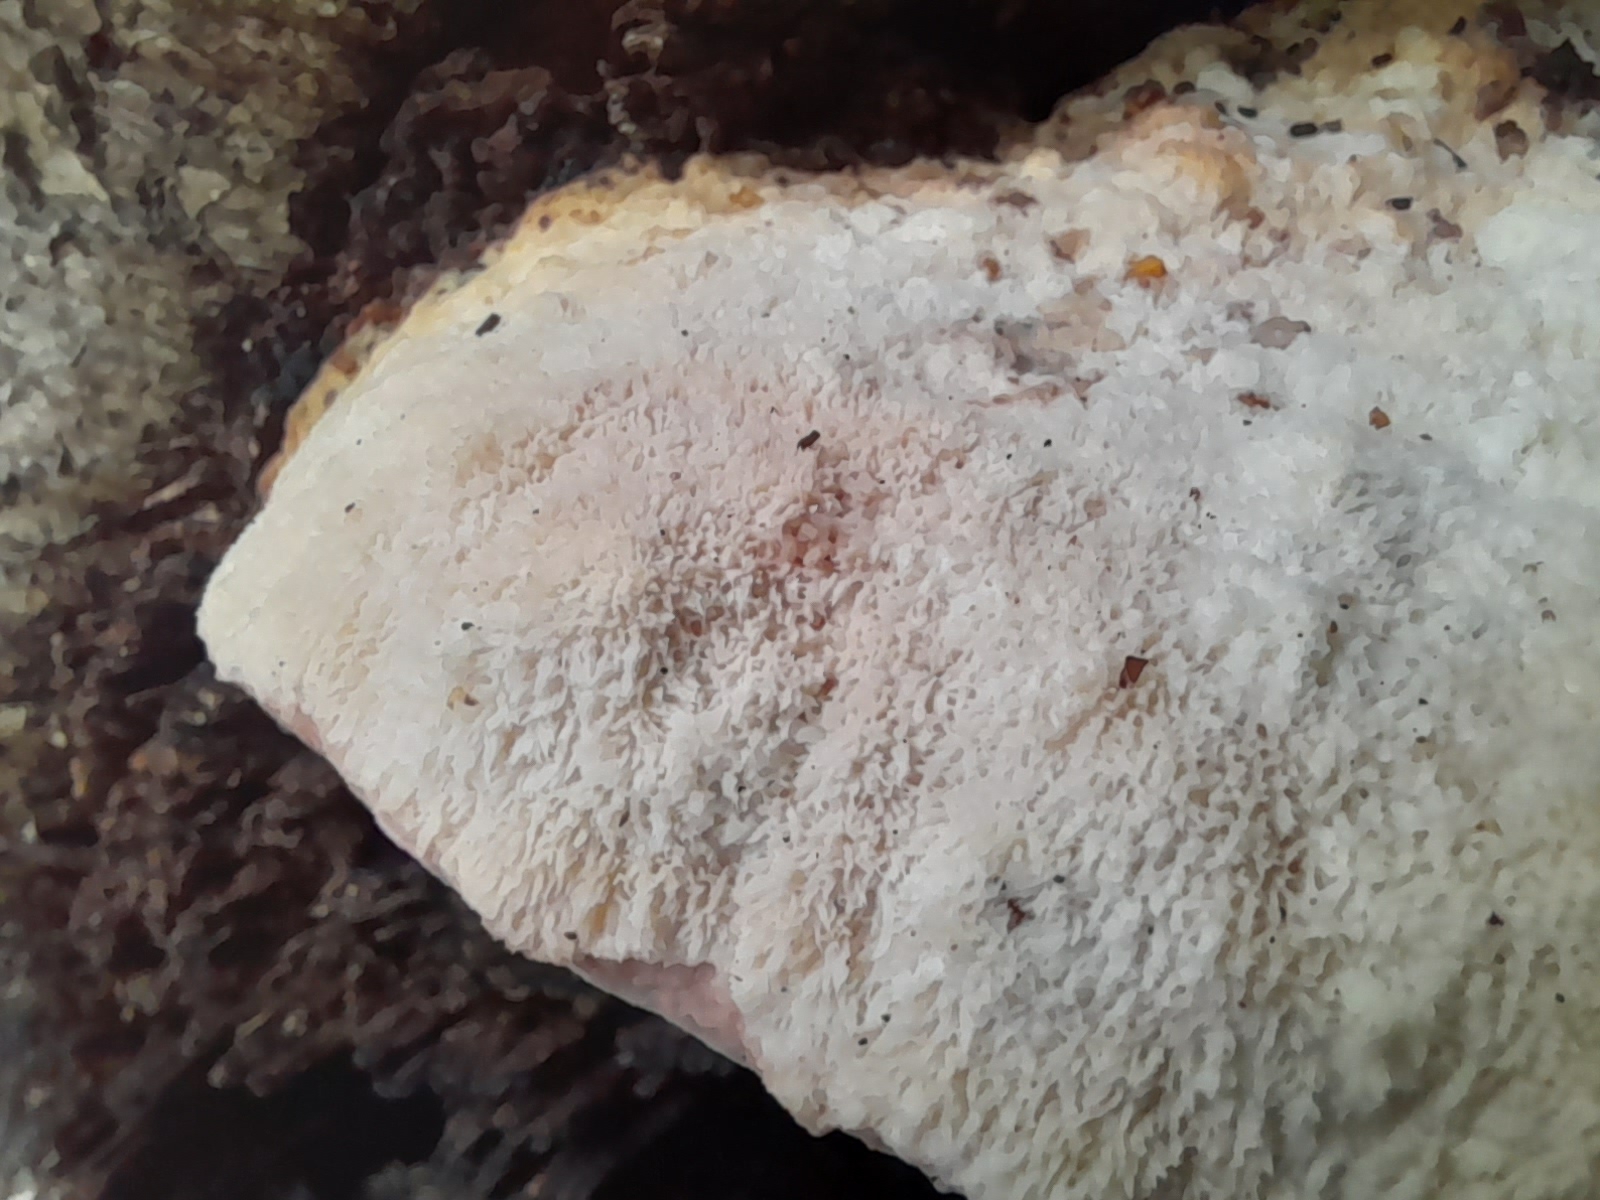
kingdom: Fungi
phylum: Basidiomycota
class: Agaricomycetes
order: Polyporales
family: Meruliaceae
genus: Pappia
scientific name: Pappia fissilis
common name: sej fedtporesvamp
